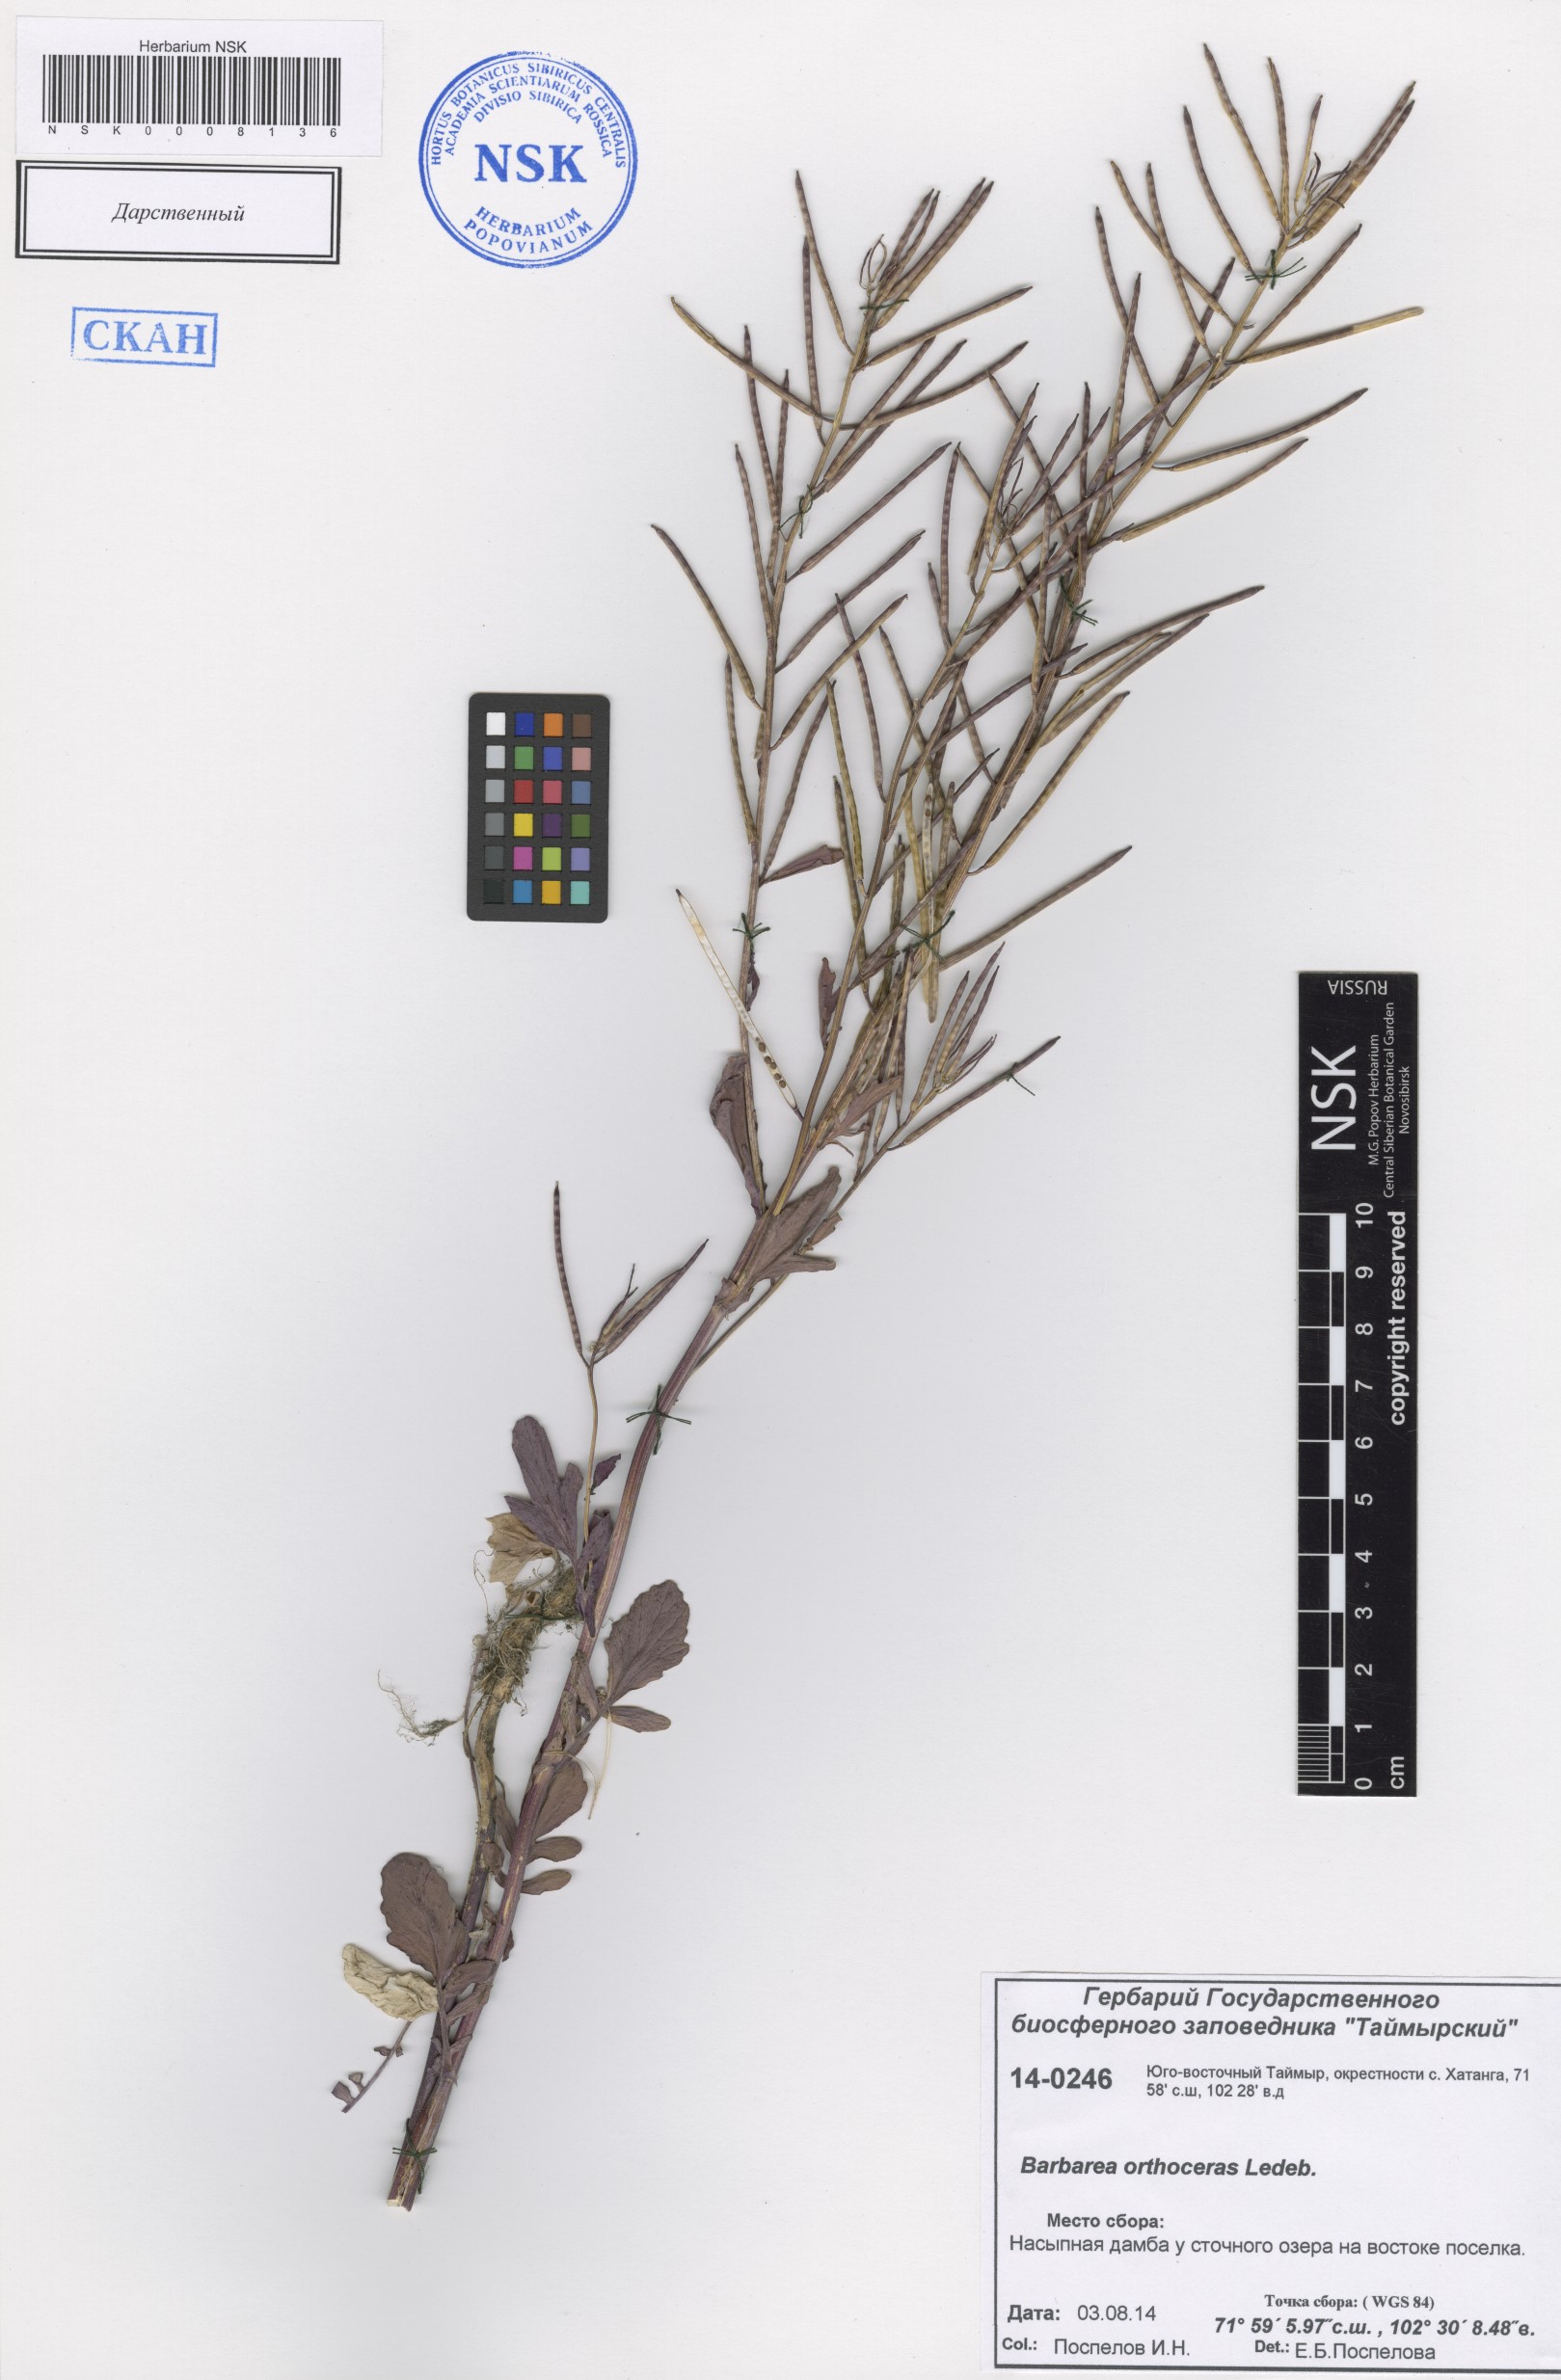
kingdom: Plantae
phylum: Tracheophyta
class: Magnoliopsida
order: Brassicales
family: Brassicaceae
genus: Barbarea
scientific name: Barbarea orthoceras
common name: American wintercress
